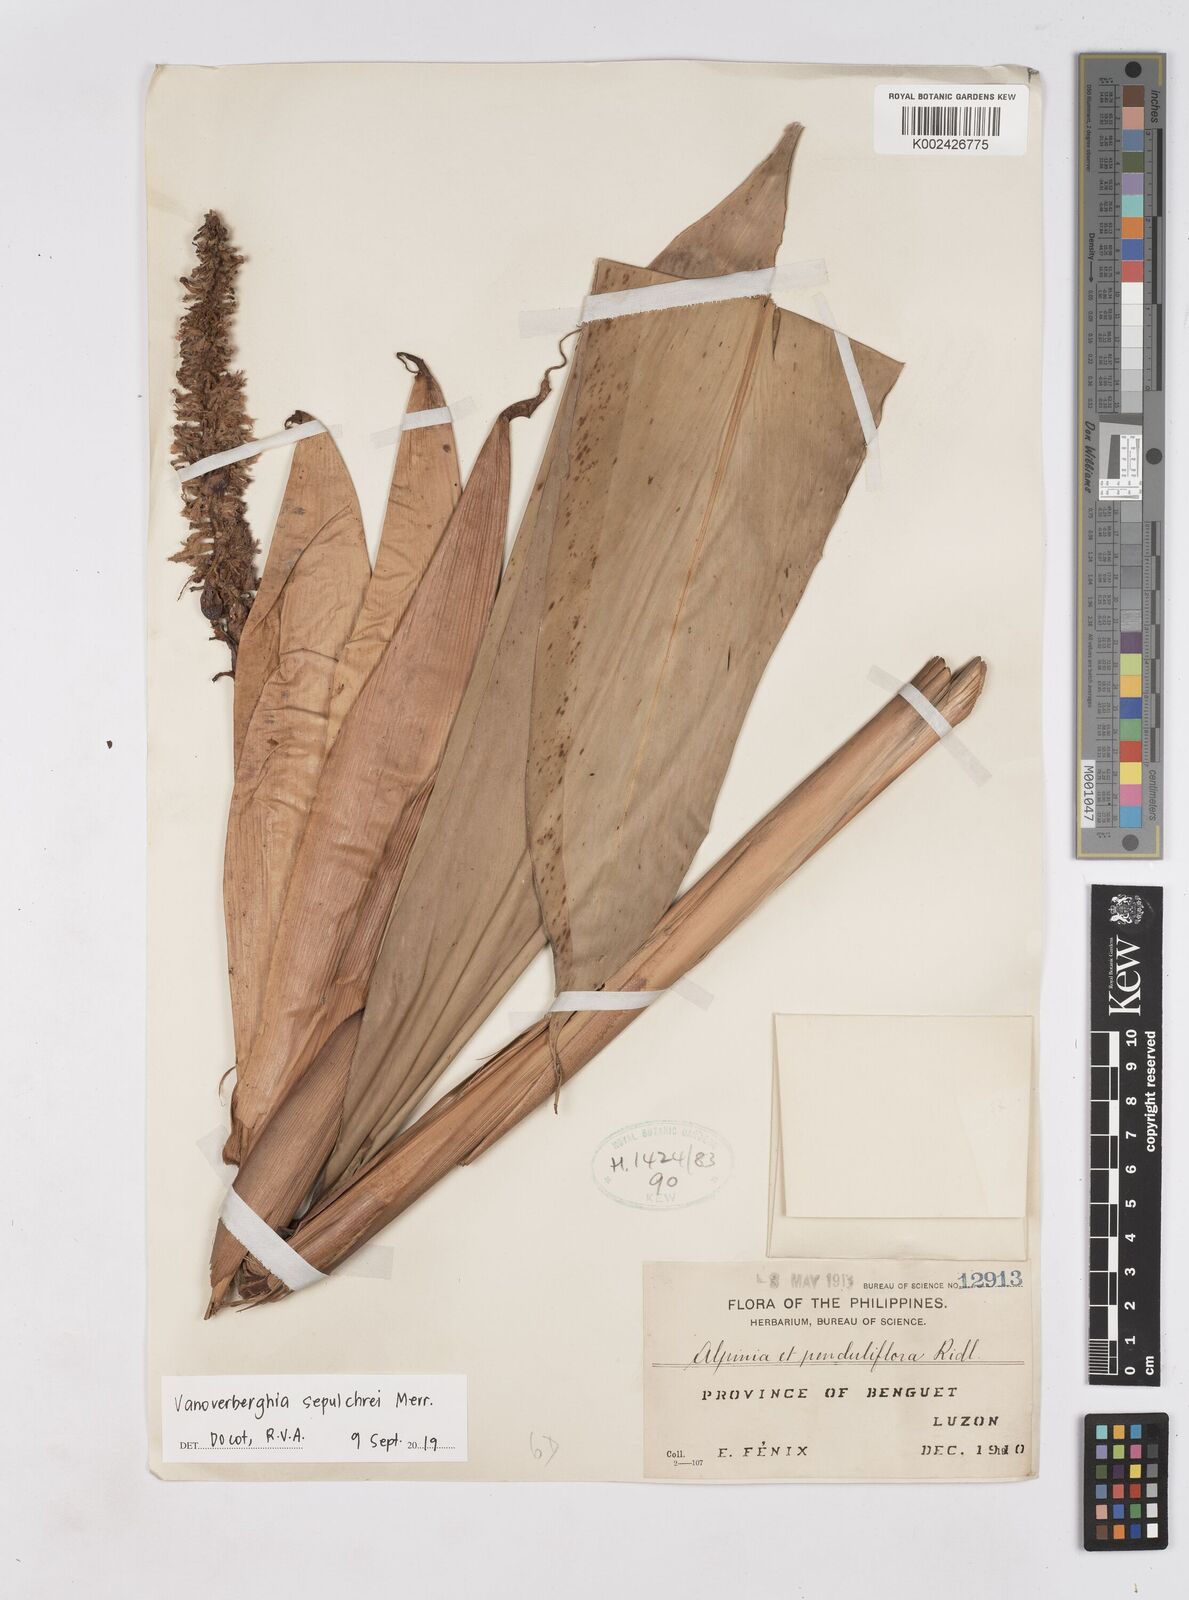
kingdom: Plantae
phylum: Tracheophyta
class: Liliopsida
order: Zingiberales
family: Zingiberaceae
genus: Vanoverberghia
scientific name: Vanoverberghia sepulchrei
